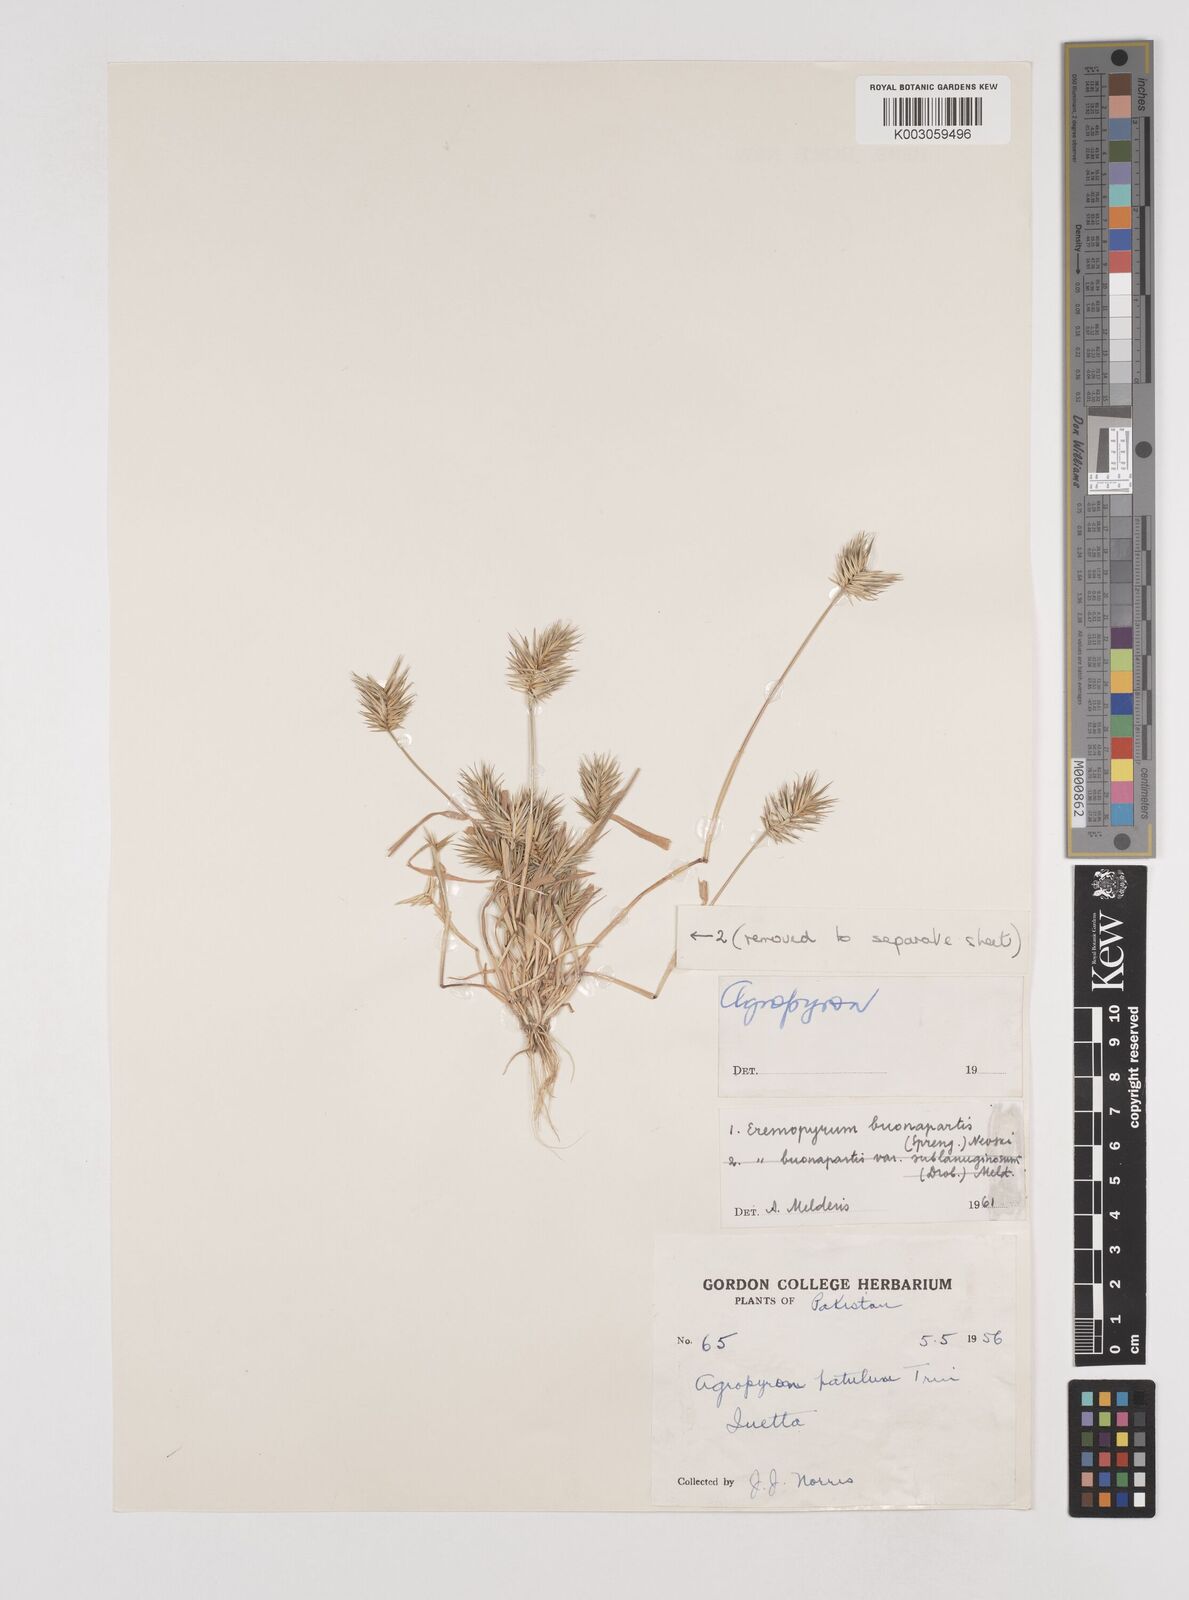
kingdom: Plantae
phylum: Tracheophyta
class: Liliopsida
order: Poales
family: Poaceae
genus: Eremopyrum
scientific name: Eremopyrum bonaepartis
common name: Tapertip false wheatgrass
